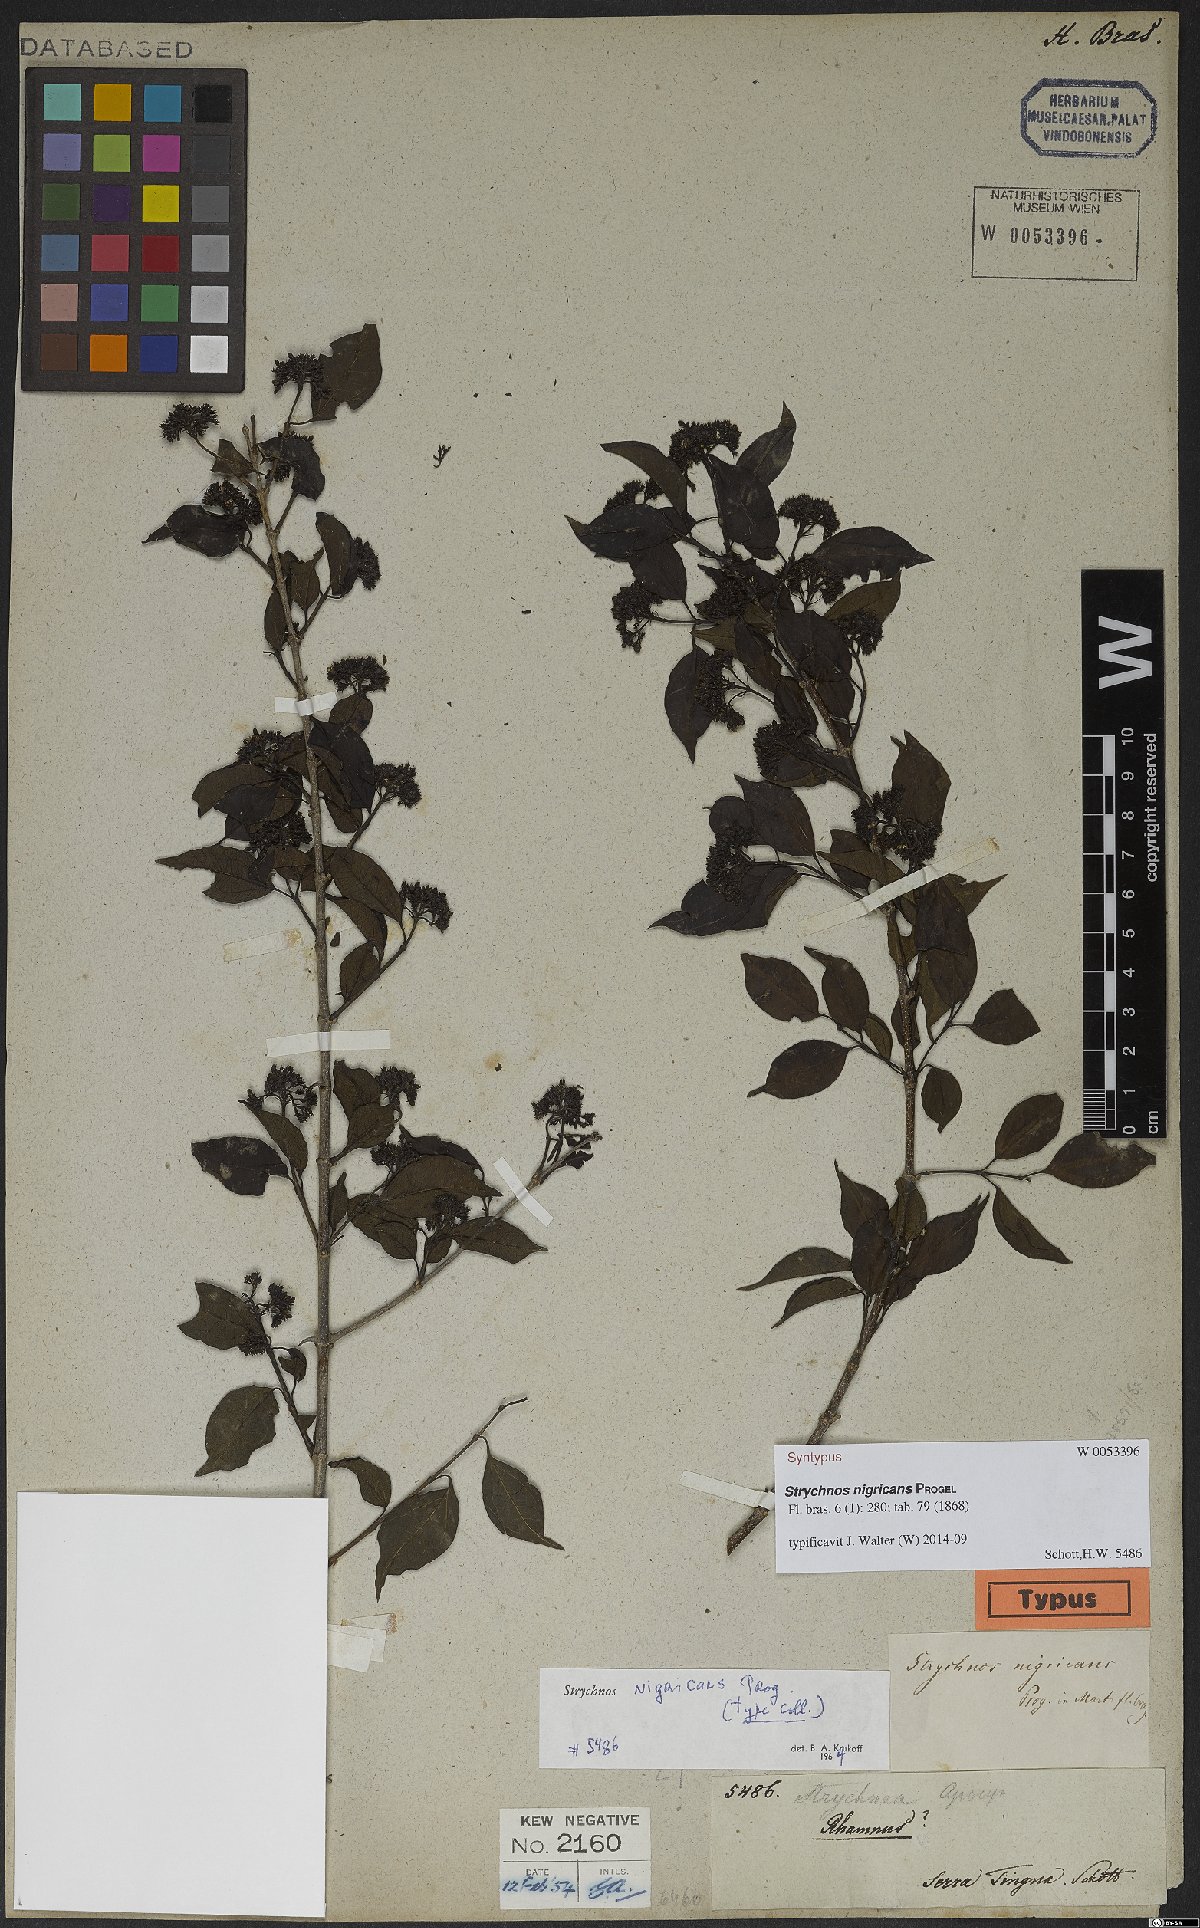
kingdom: Plantae
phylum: Tracheophyta
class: Magnoliopsida
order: Gentianales
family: Loganiaceae
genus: Strychnos
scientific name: Strychnos nigricans
